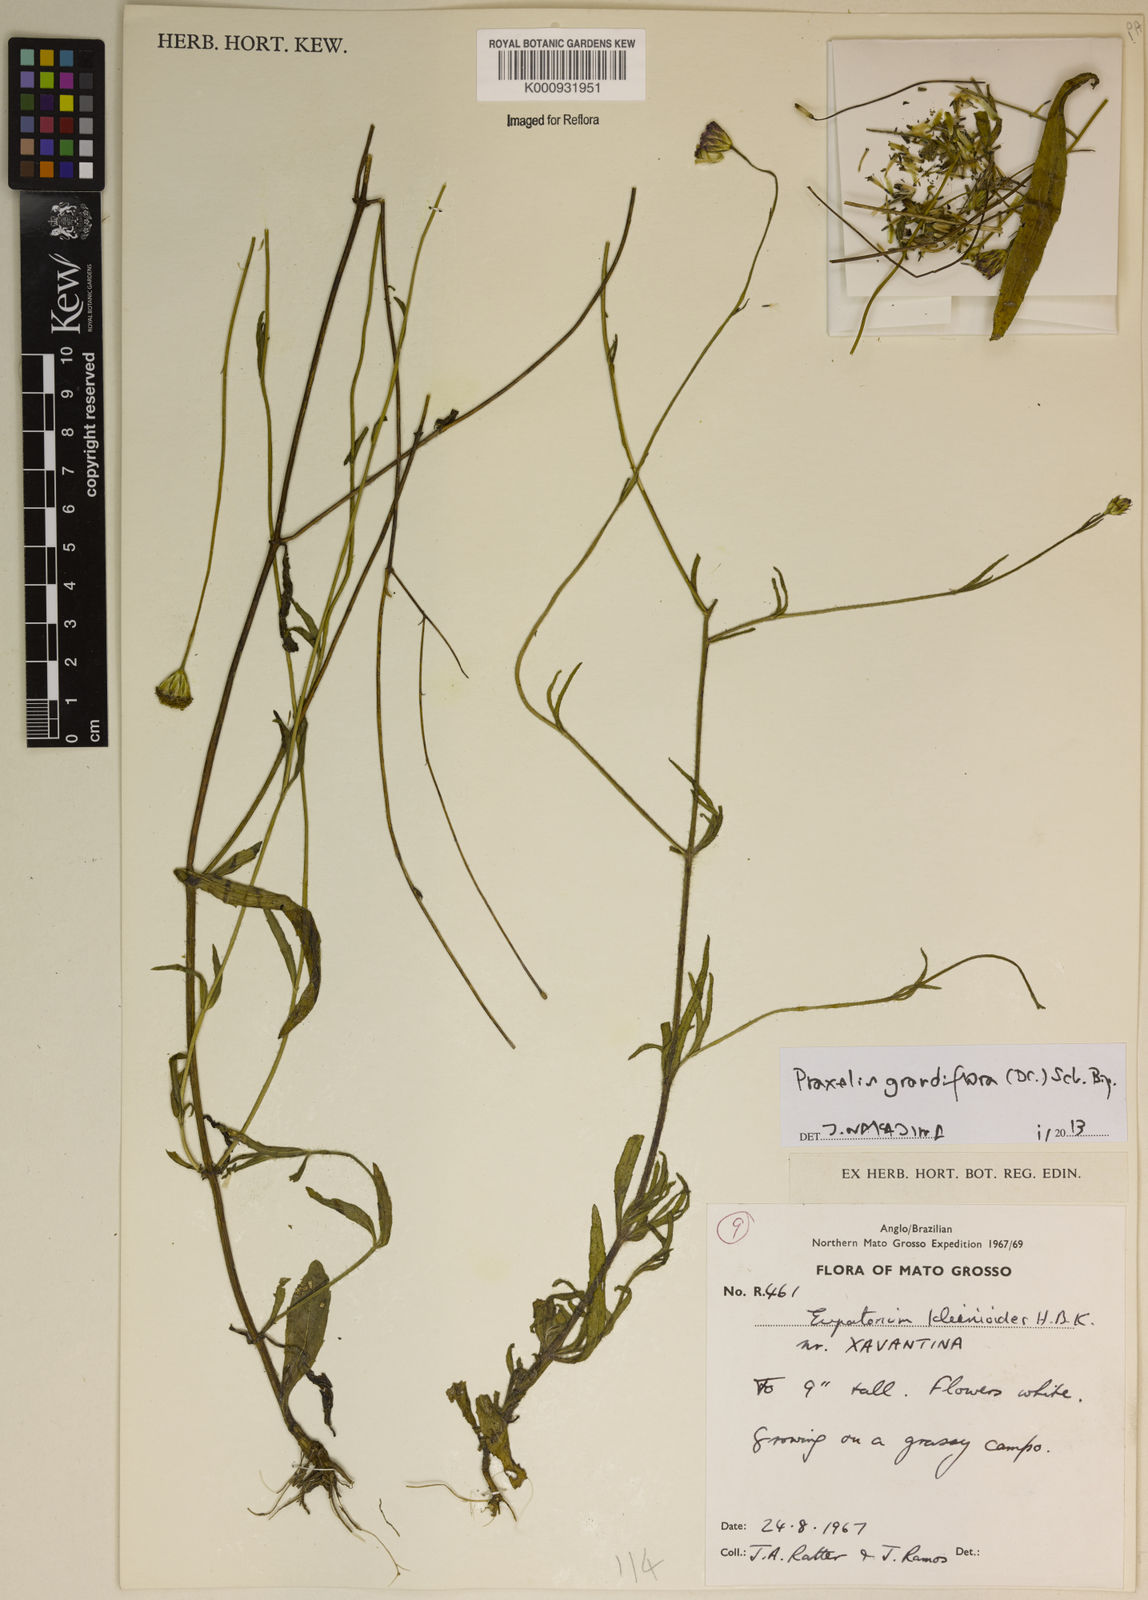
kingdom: Plantae
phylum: Tracheophyta
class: Magnoliopsida
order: Asterales
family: Asteraceae
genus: Praxelis
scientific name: Praxelis grandiflora
